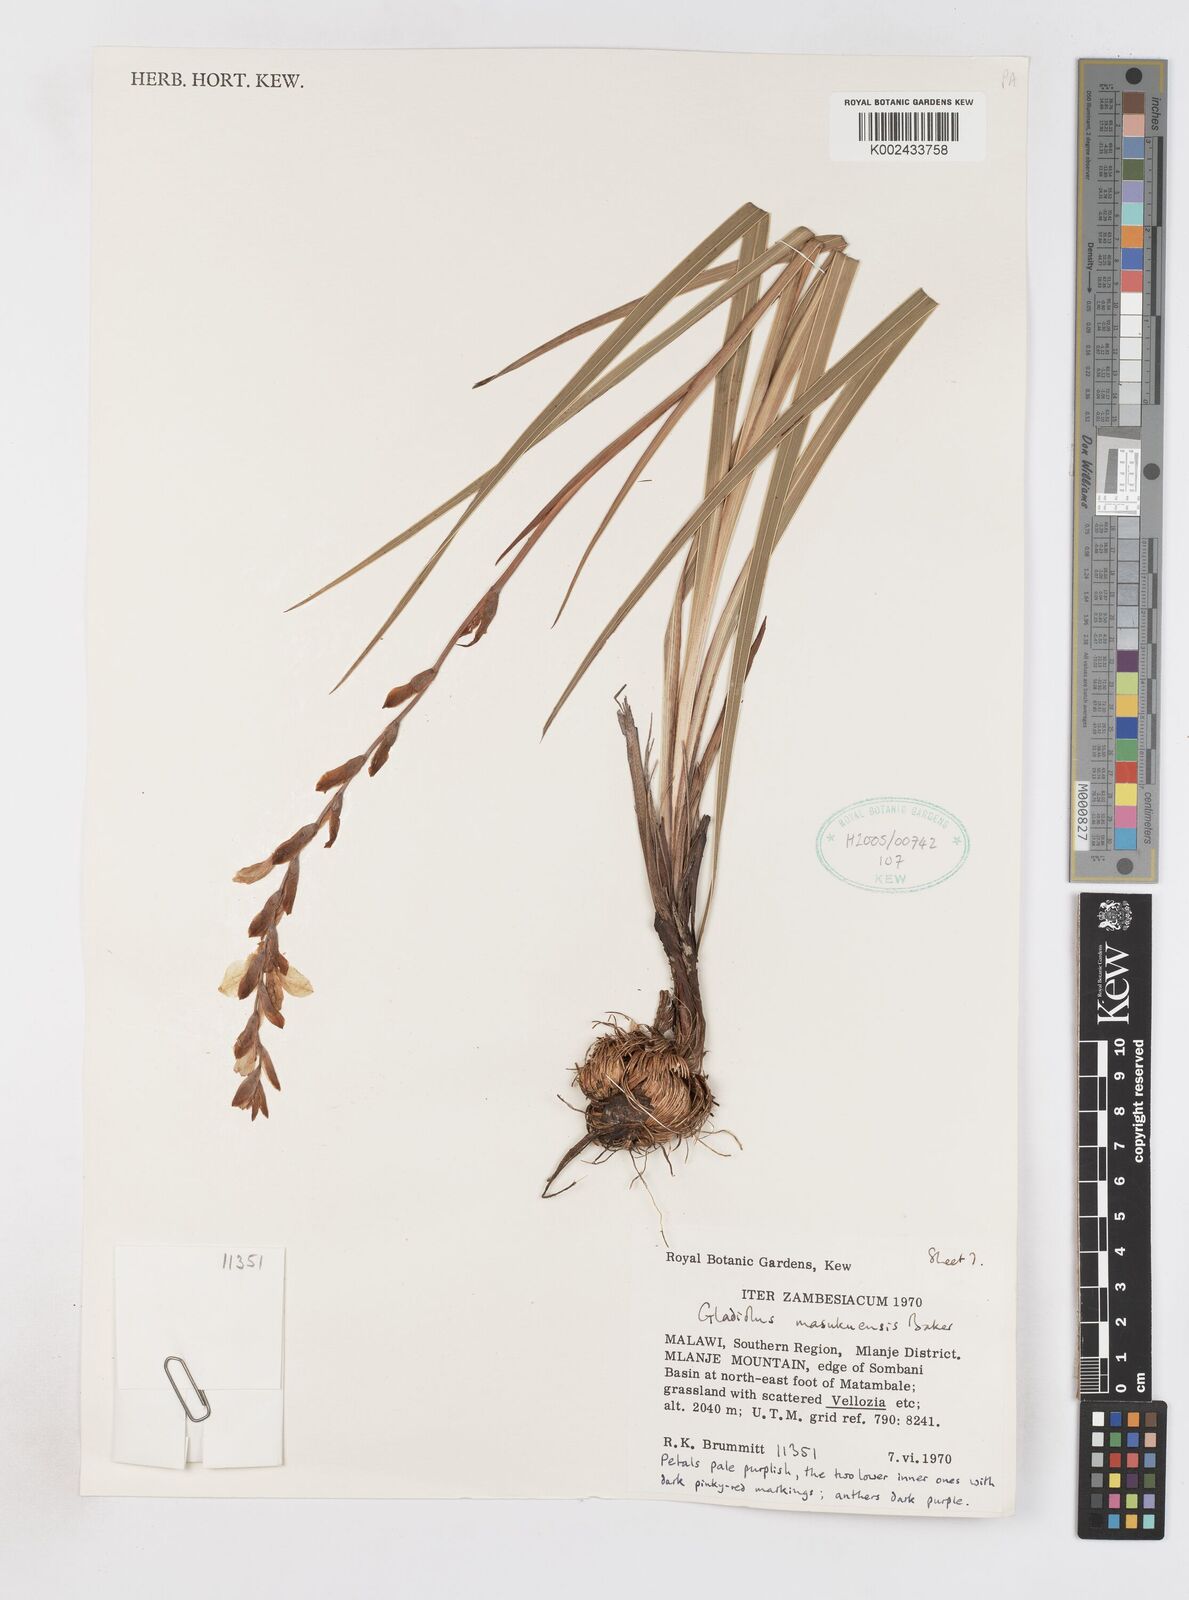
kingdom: Plantae
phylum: Tracheophyta
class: Liliopsida
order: Asparagales
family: Iridaceae
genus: Gladiolus
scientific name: Gladiolus crassifolius
